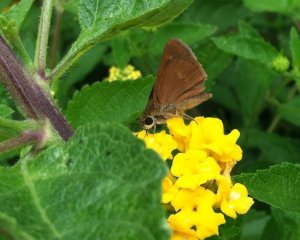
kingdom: Animalia
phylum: Arthropoda
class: Insecta
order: Lepidoptera
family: Hesperiidae
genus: Polites
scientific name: Polites
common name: Crossline Skipper
